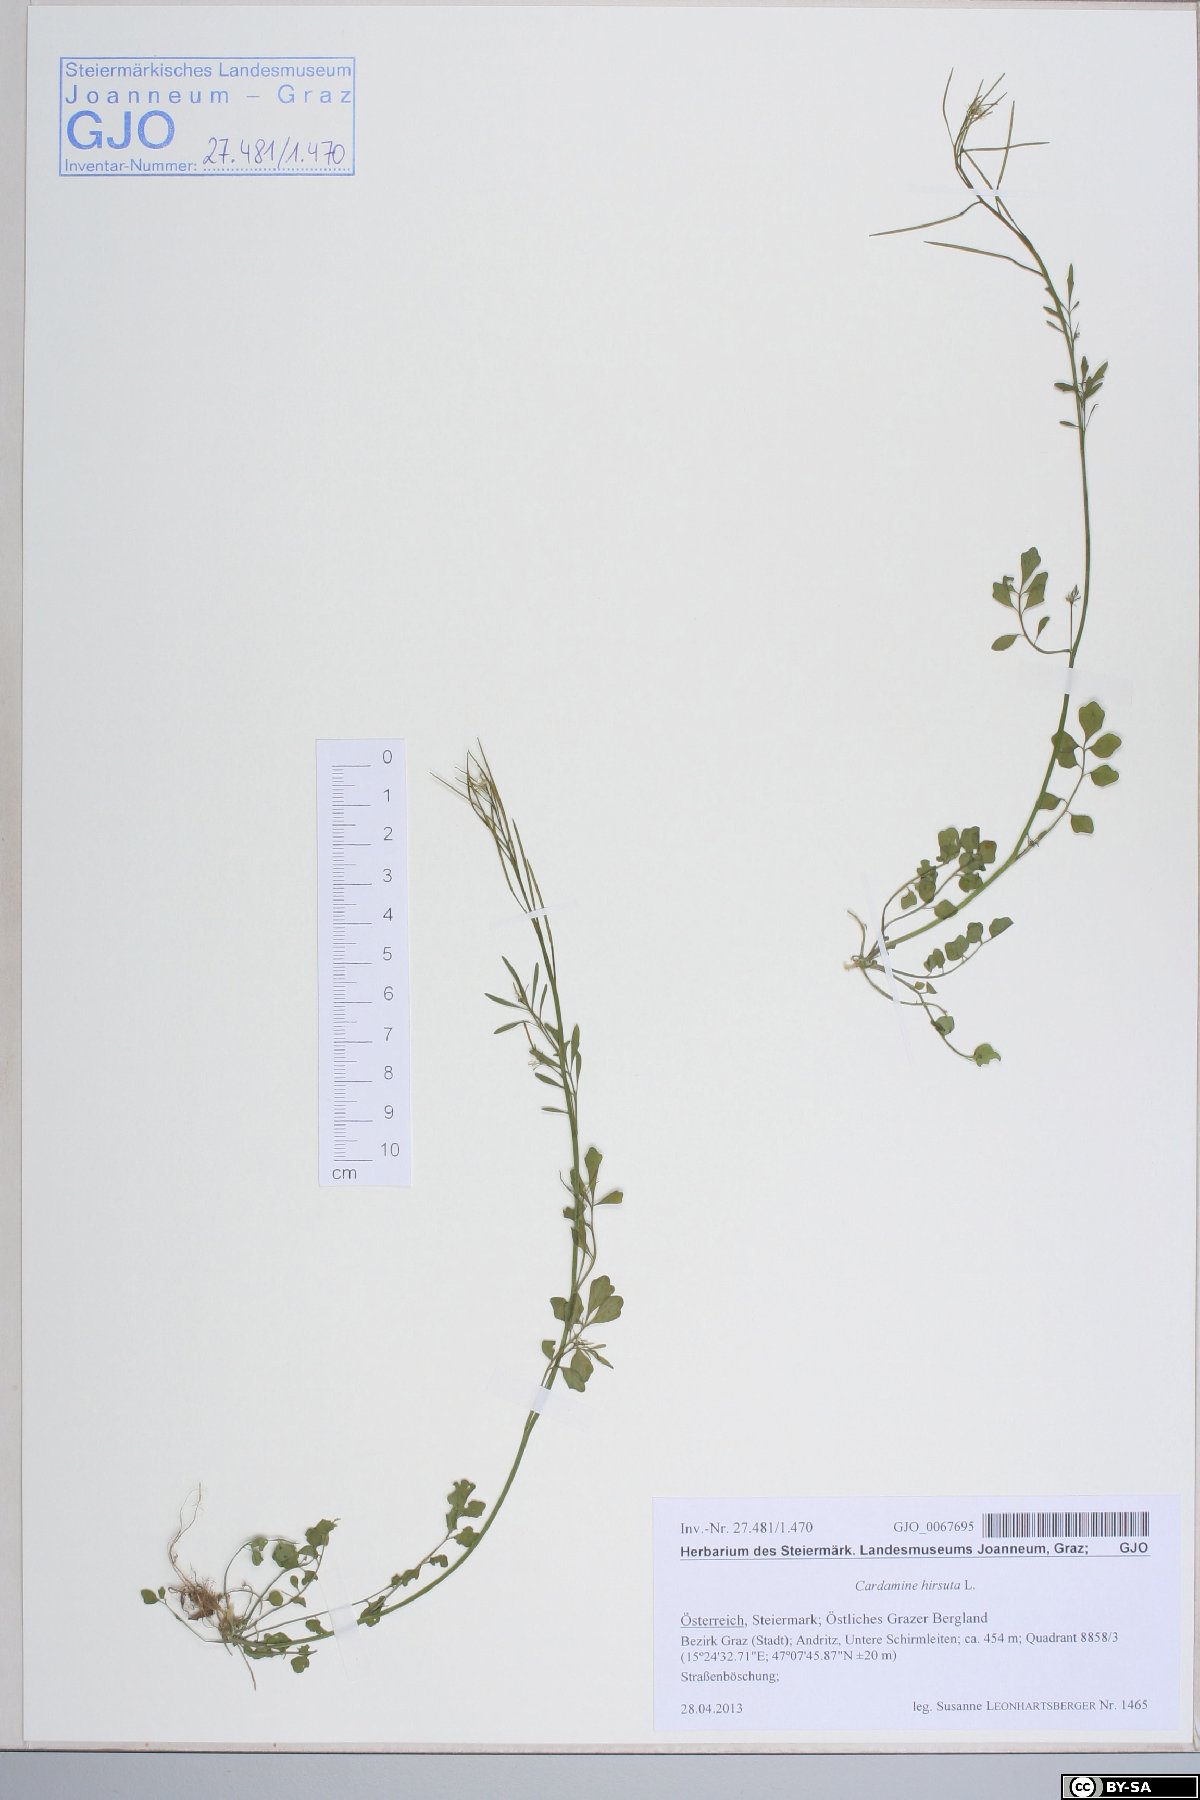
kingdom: Plantae
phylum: Tracheophyta
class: Magnoliopsida
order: Brassicales
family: Brassicaceae
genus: Cardamine
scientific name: Cardamine hirsuta
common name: Hairy bittercress
